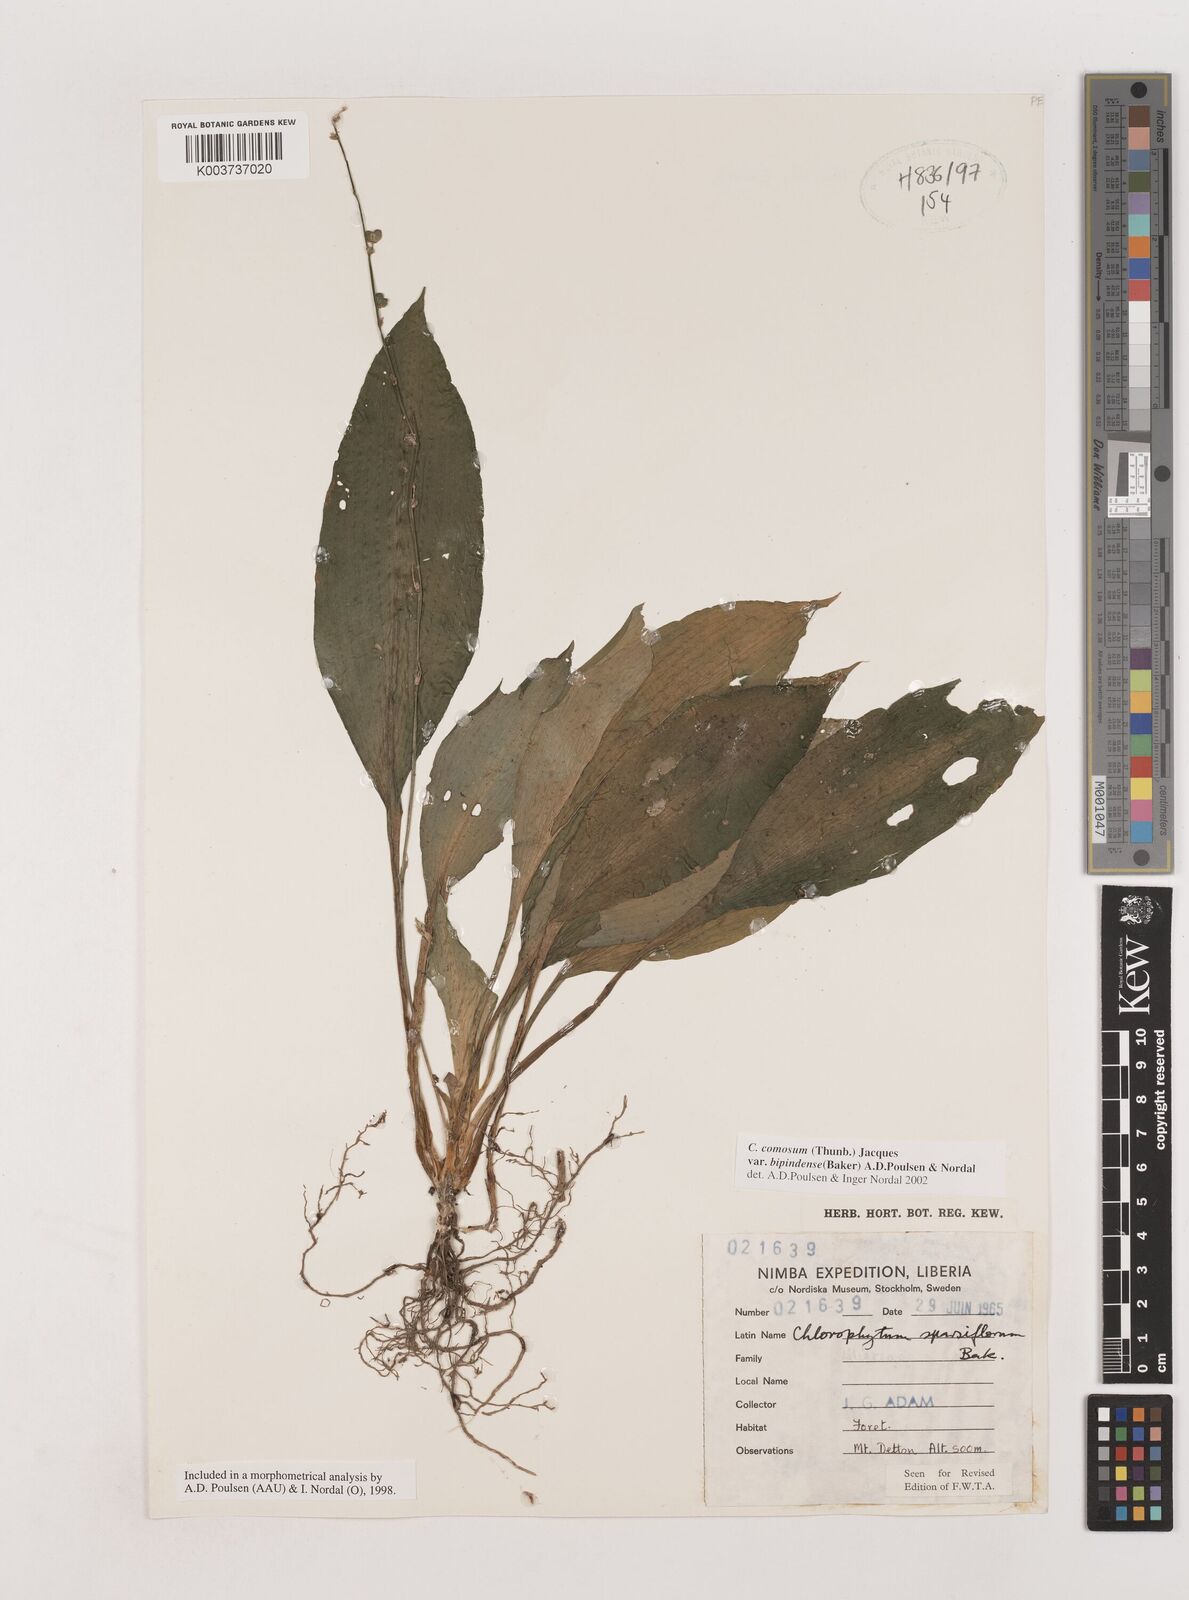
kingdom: Plantae
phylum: Tracheophyta
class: Liliopsida
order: Asparagales
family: Asparagaceae
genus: Chlorophytum
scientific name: Chlorophytum sparsiflorum
